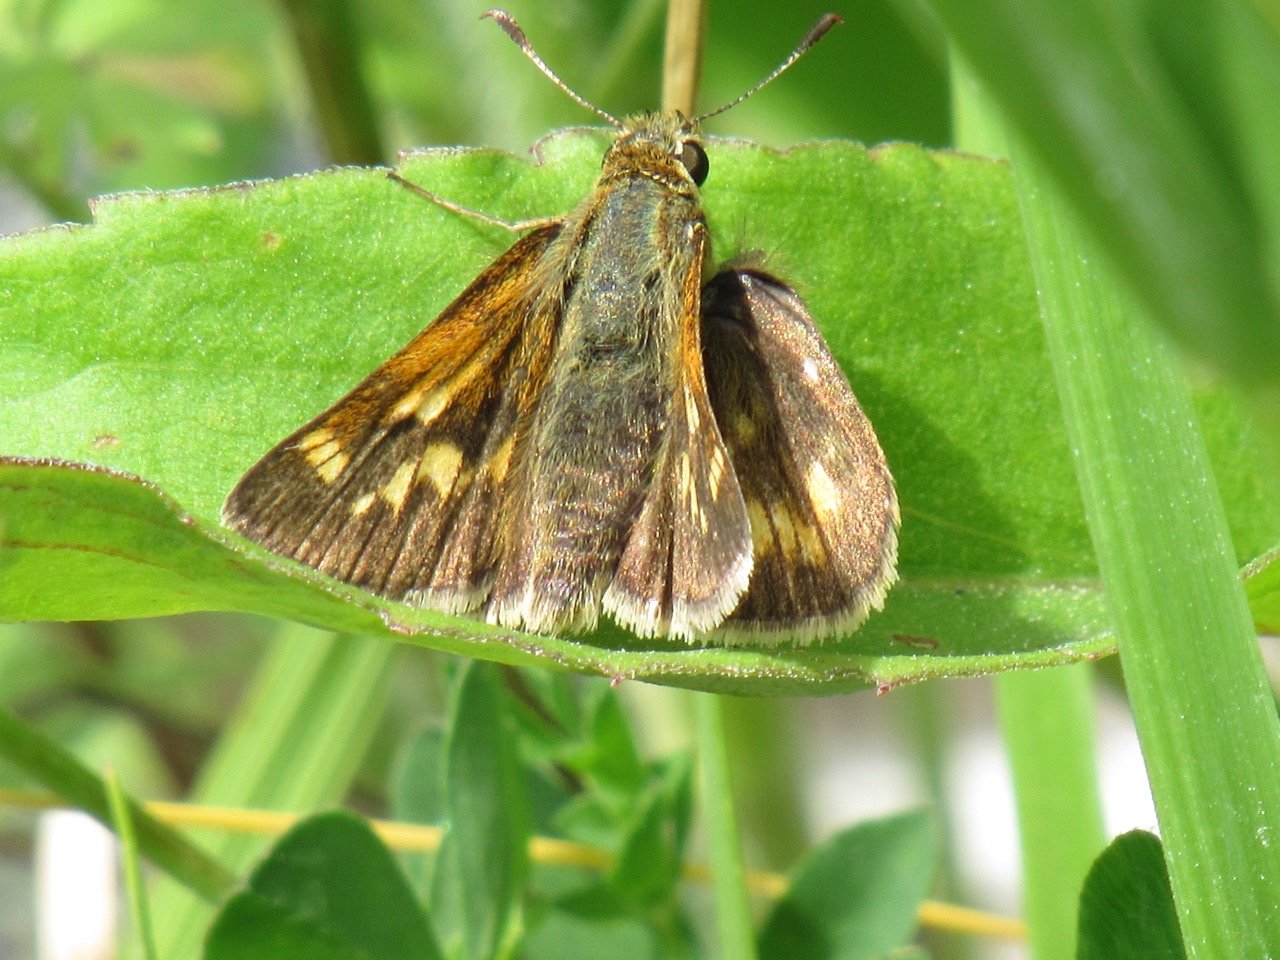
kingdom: Animalia
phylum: Arthropoda
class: Insecta
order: Lepidoptera
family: Hesperiidae
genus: Polites
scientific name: Polites
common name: Long Dash Skipper
